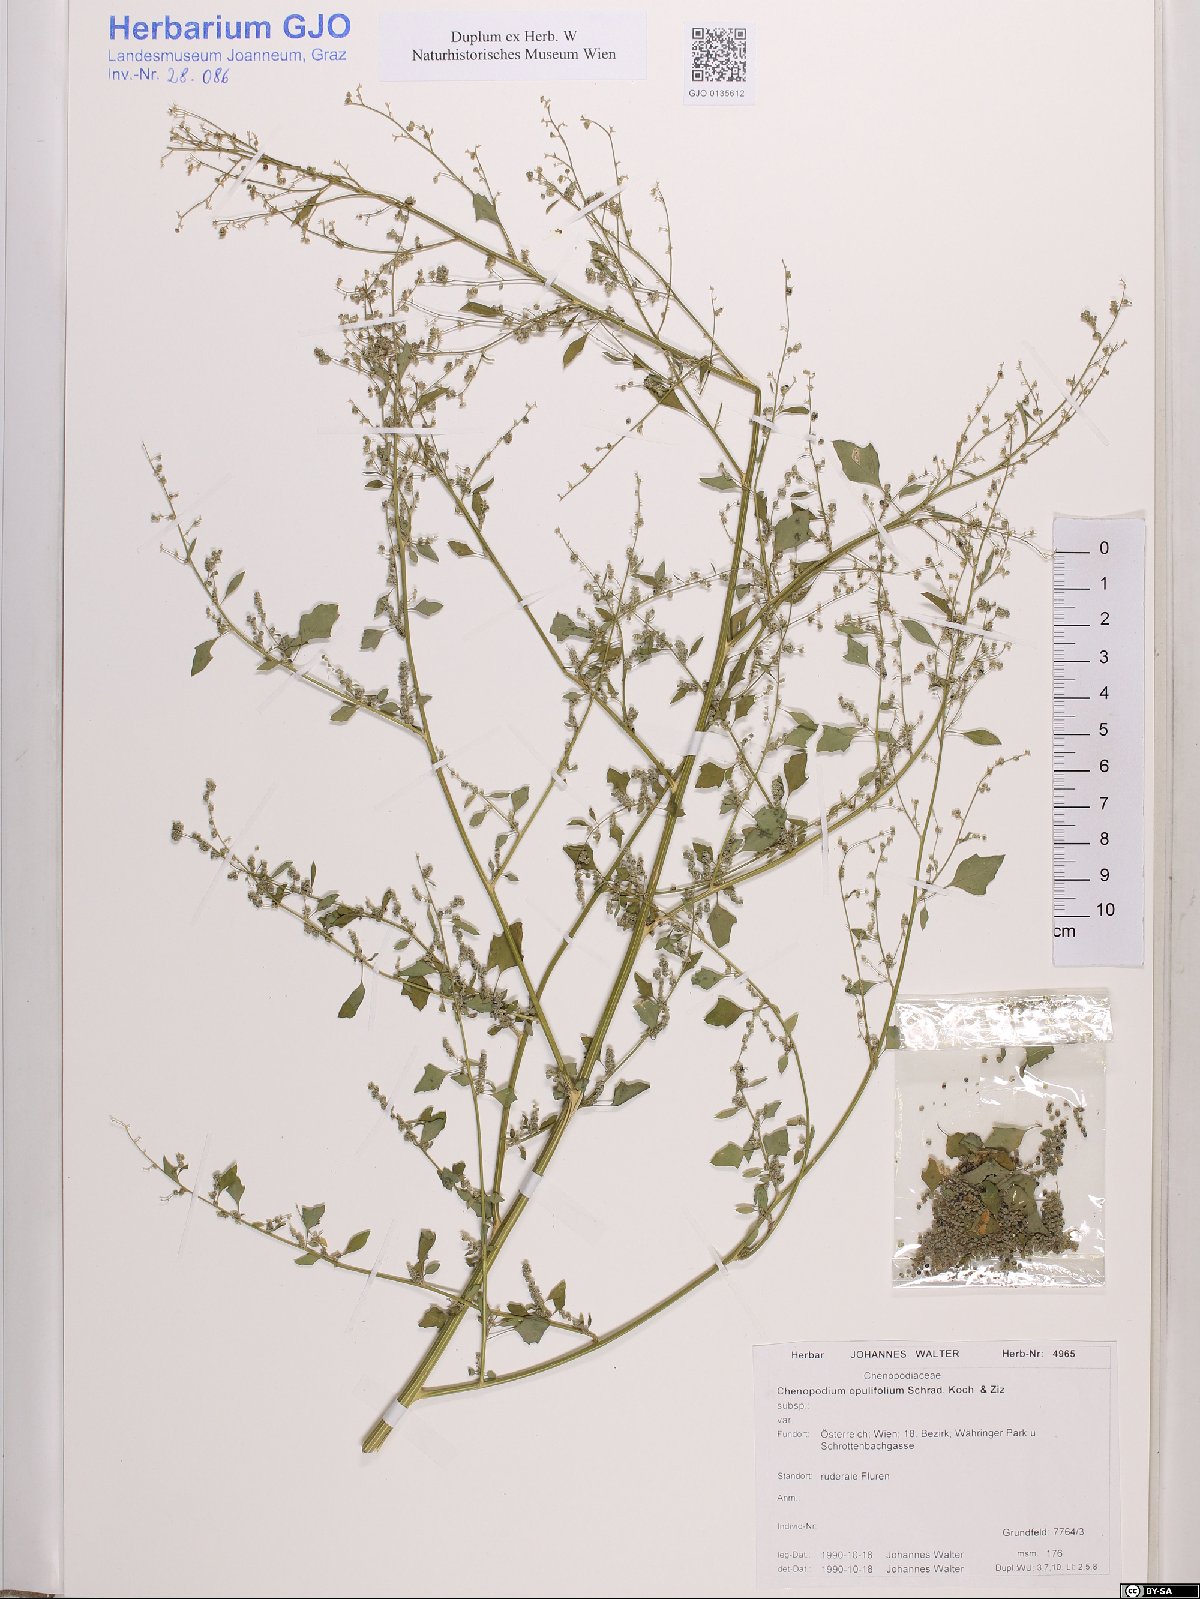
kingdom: Plantae
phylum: Tracheophyta
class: Magnoliopsida
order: Caryophyllales
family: Amaranthaceae
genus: Chenopodium
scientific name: Chenopodium opulifolium
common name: Grey goosefoot
